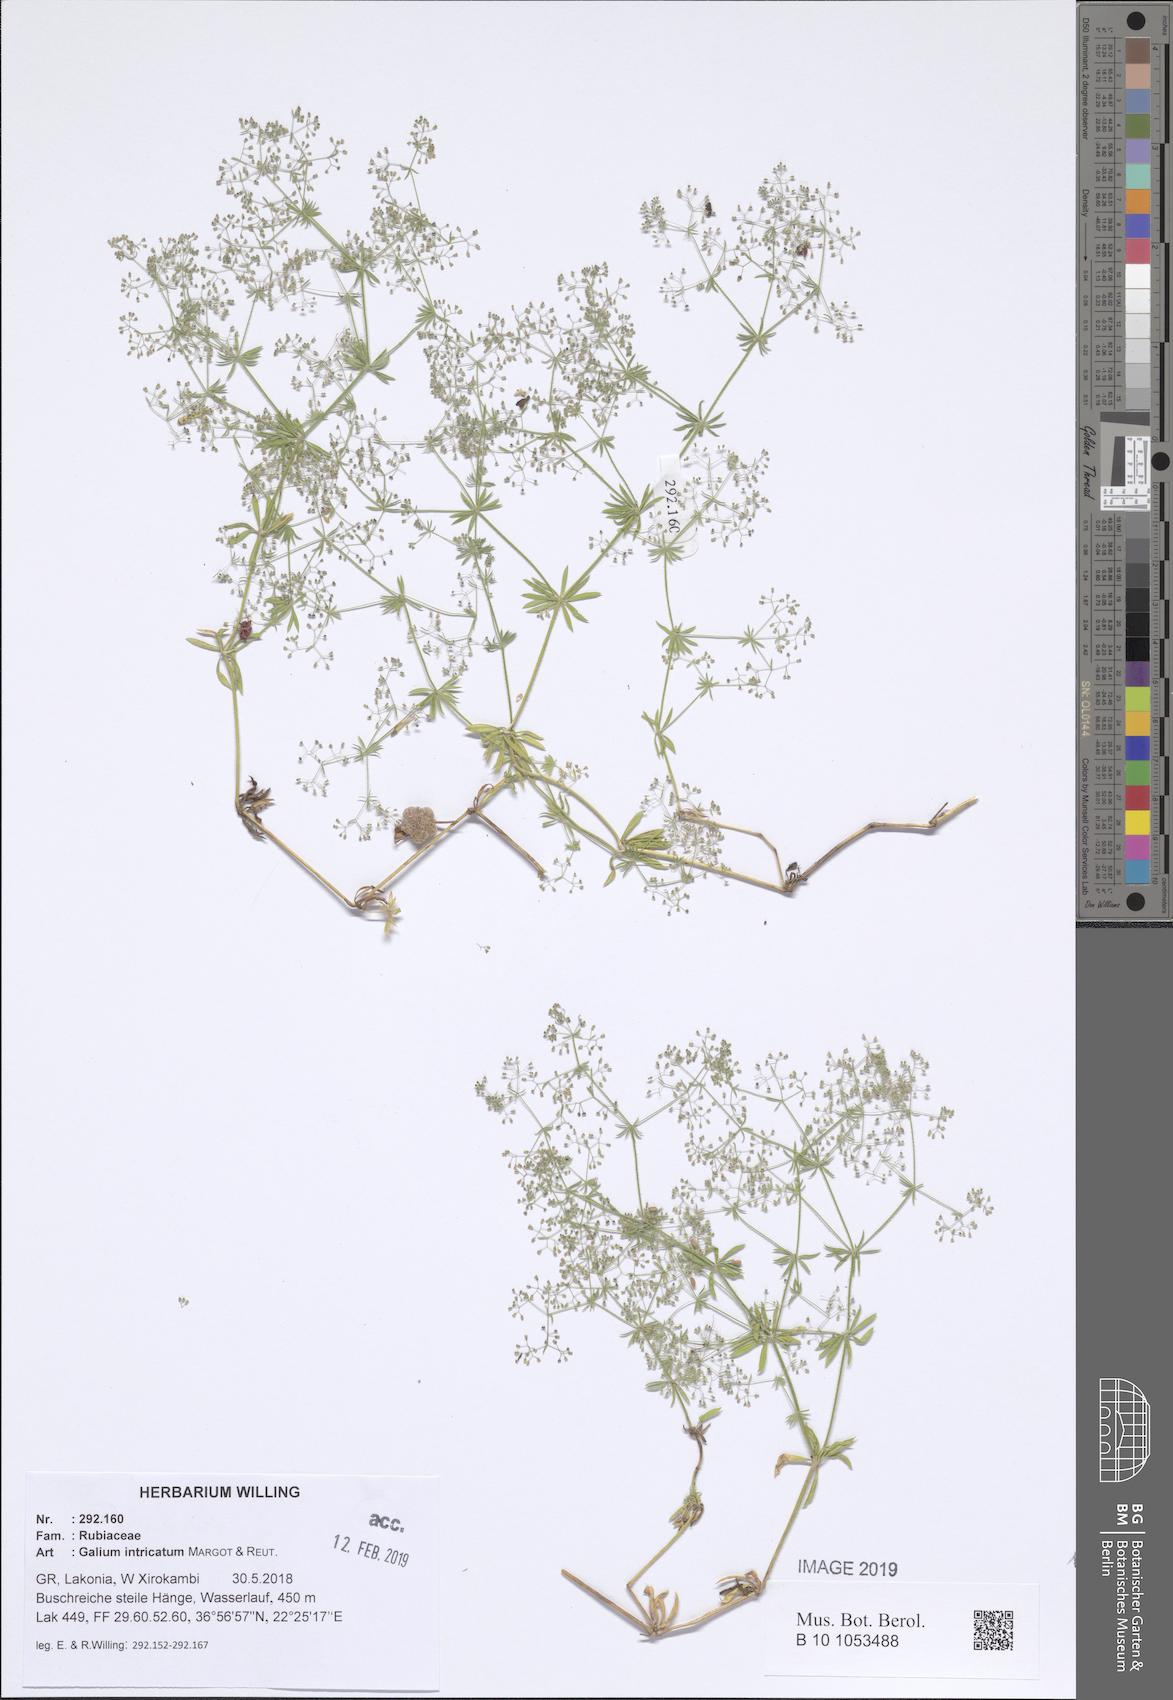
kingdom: Plantae
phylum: Tracheophyta
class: Magnoliopsida
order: Gentianales
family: Rubiaceae
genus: Galium
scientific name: Galium intricatum
